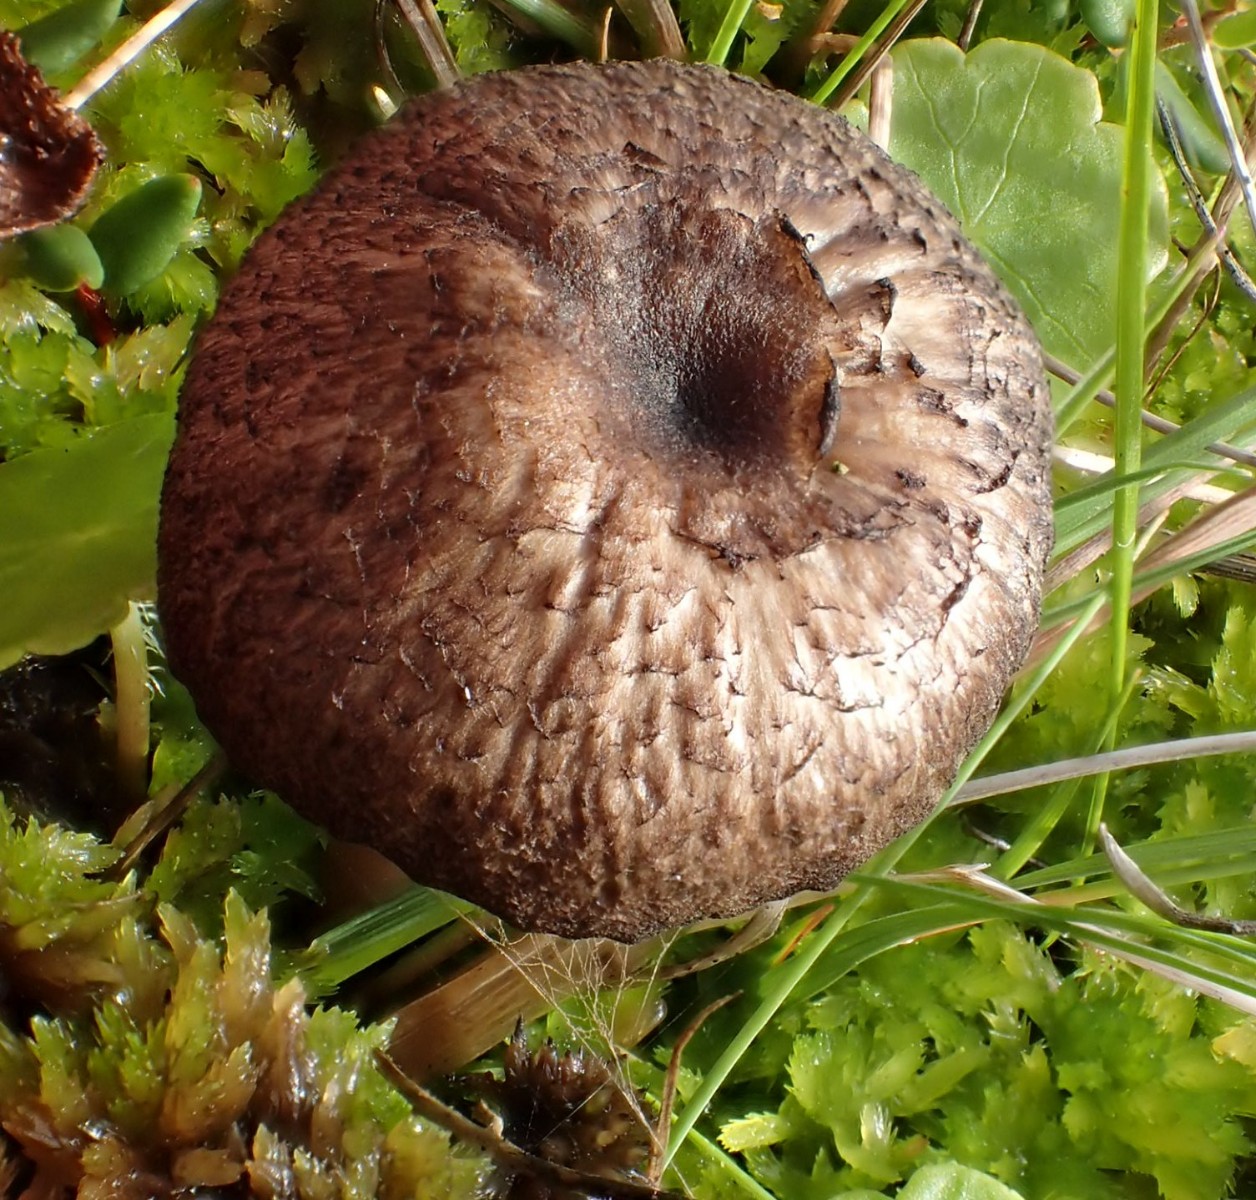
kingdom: Fungi
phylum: Basidiomycota
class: Agaricomycetes
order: Agaricales
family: Entolomataceae
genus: Entoloma
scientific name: Entoloma
